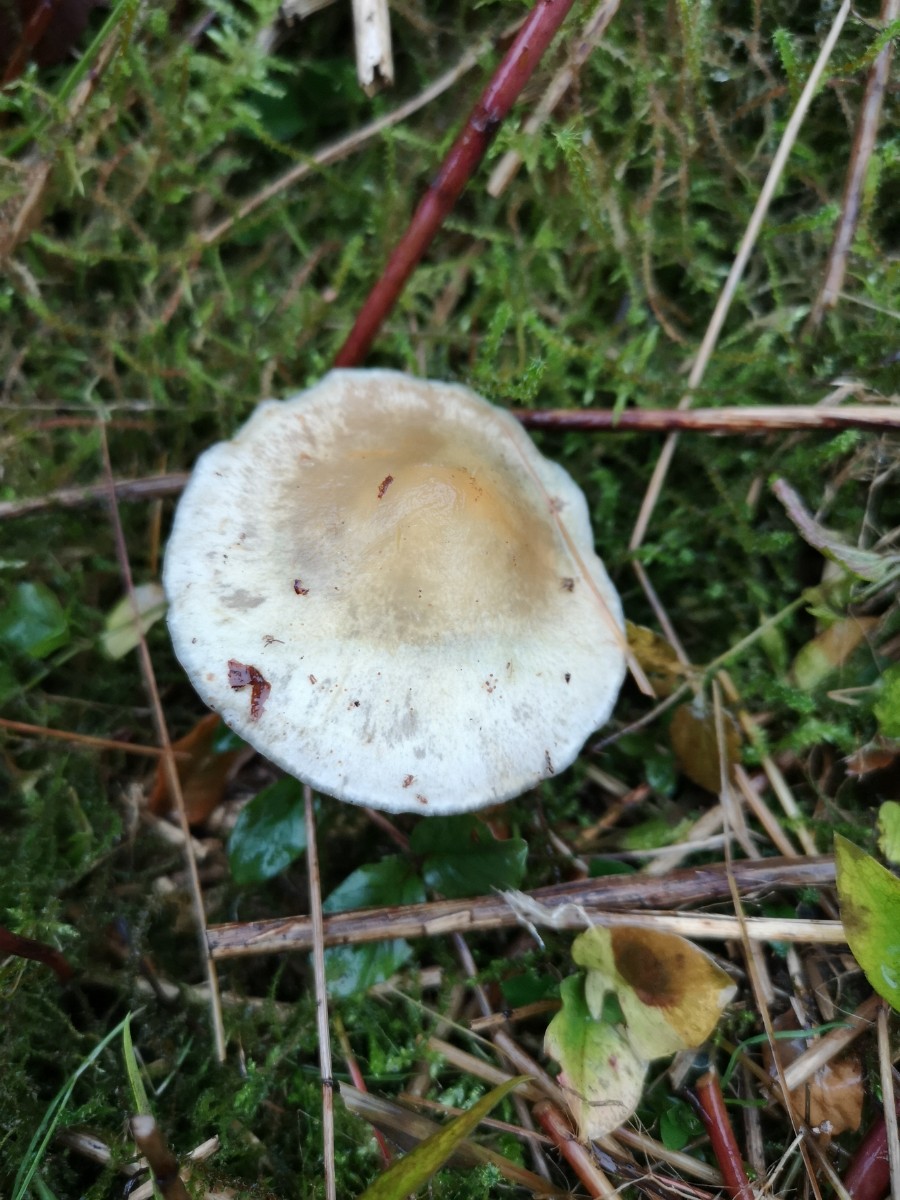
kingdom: Fungi
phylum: Basidiomycota
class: Agaricomycetes
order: Agaricales
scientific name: Agaricales
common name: champignonordenen
